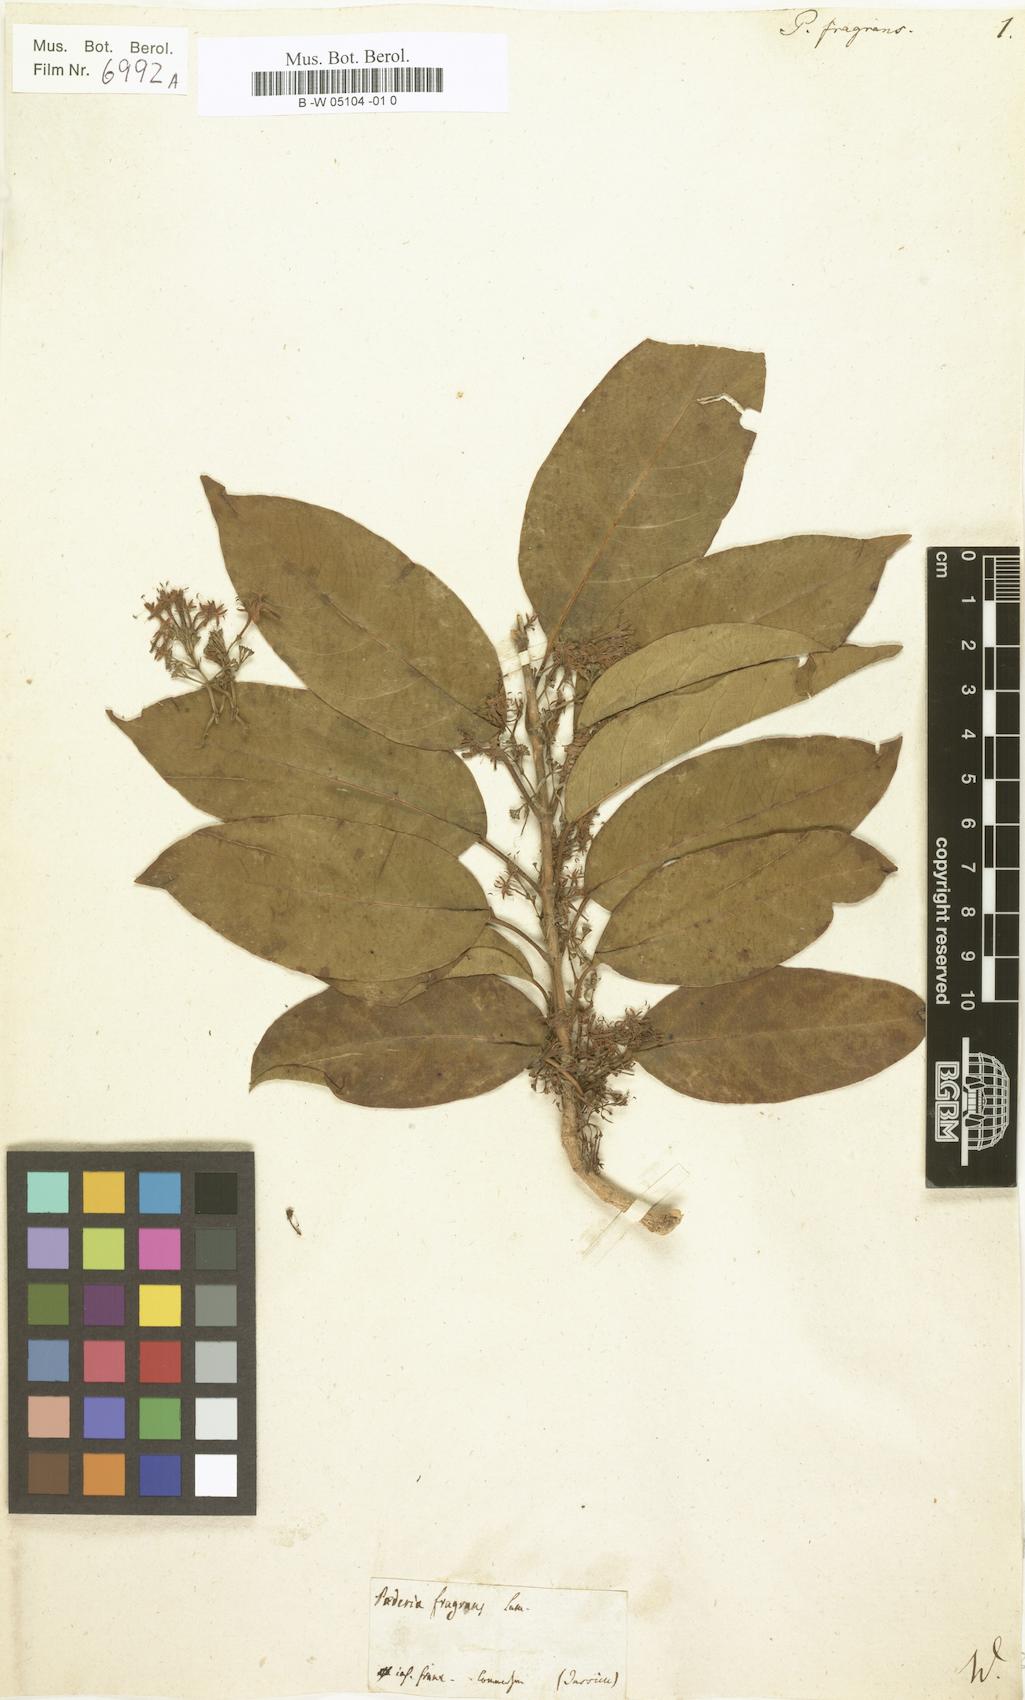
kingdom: Plantae
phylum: Tracheophyta
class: Magnoliopsida
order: Gentianales
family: Rubiaceae
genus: Danais
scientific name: Danais fragrans
